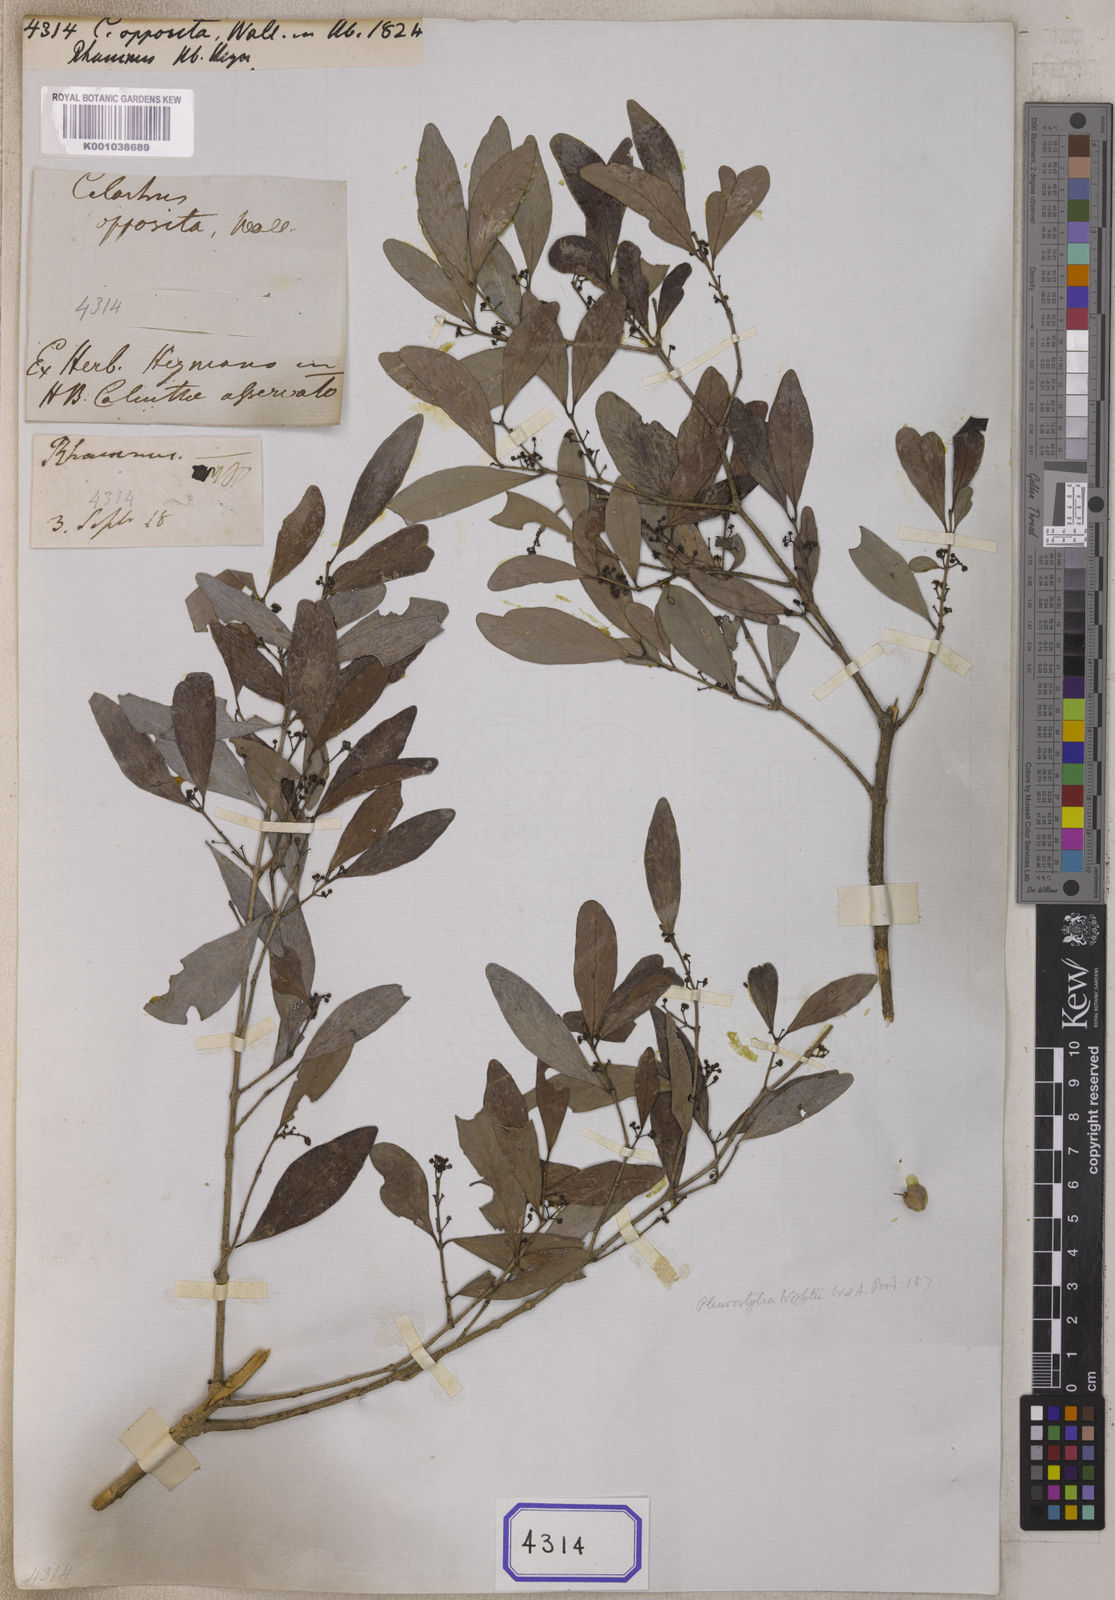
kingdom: Plantae
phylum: Tracheophyta
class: Magnoliopsida
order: Celastrales
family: Celastraceae
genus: Pleurostylia
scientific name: Pleurostylia opposita
